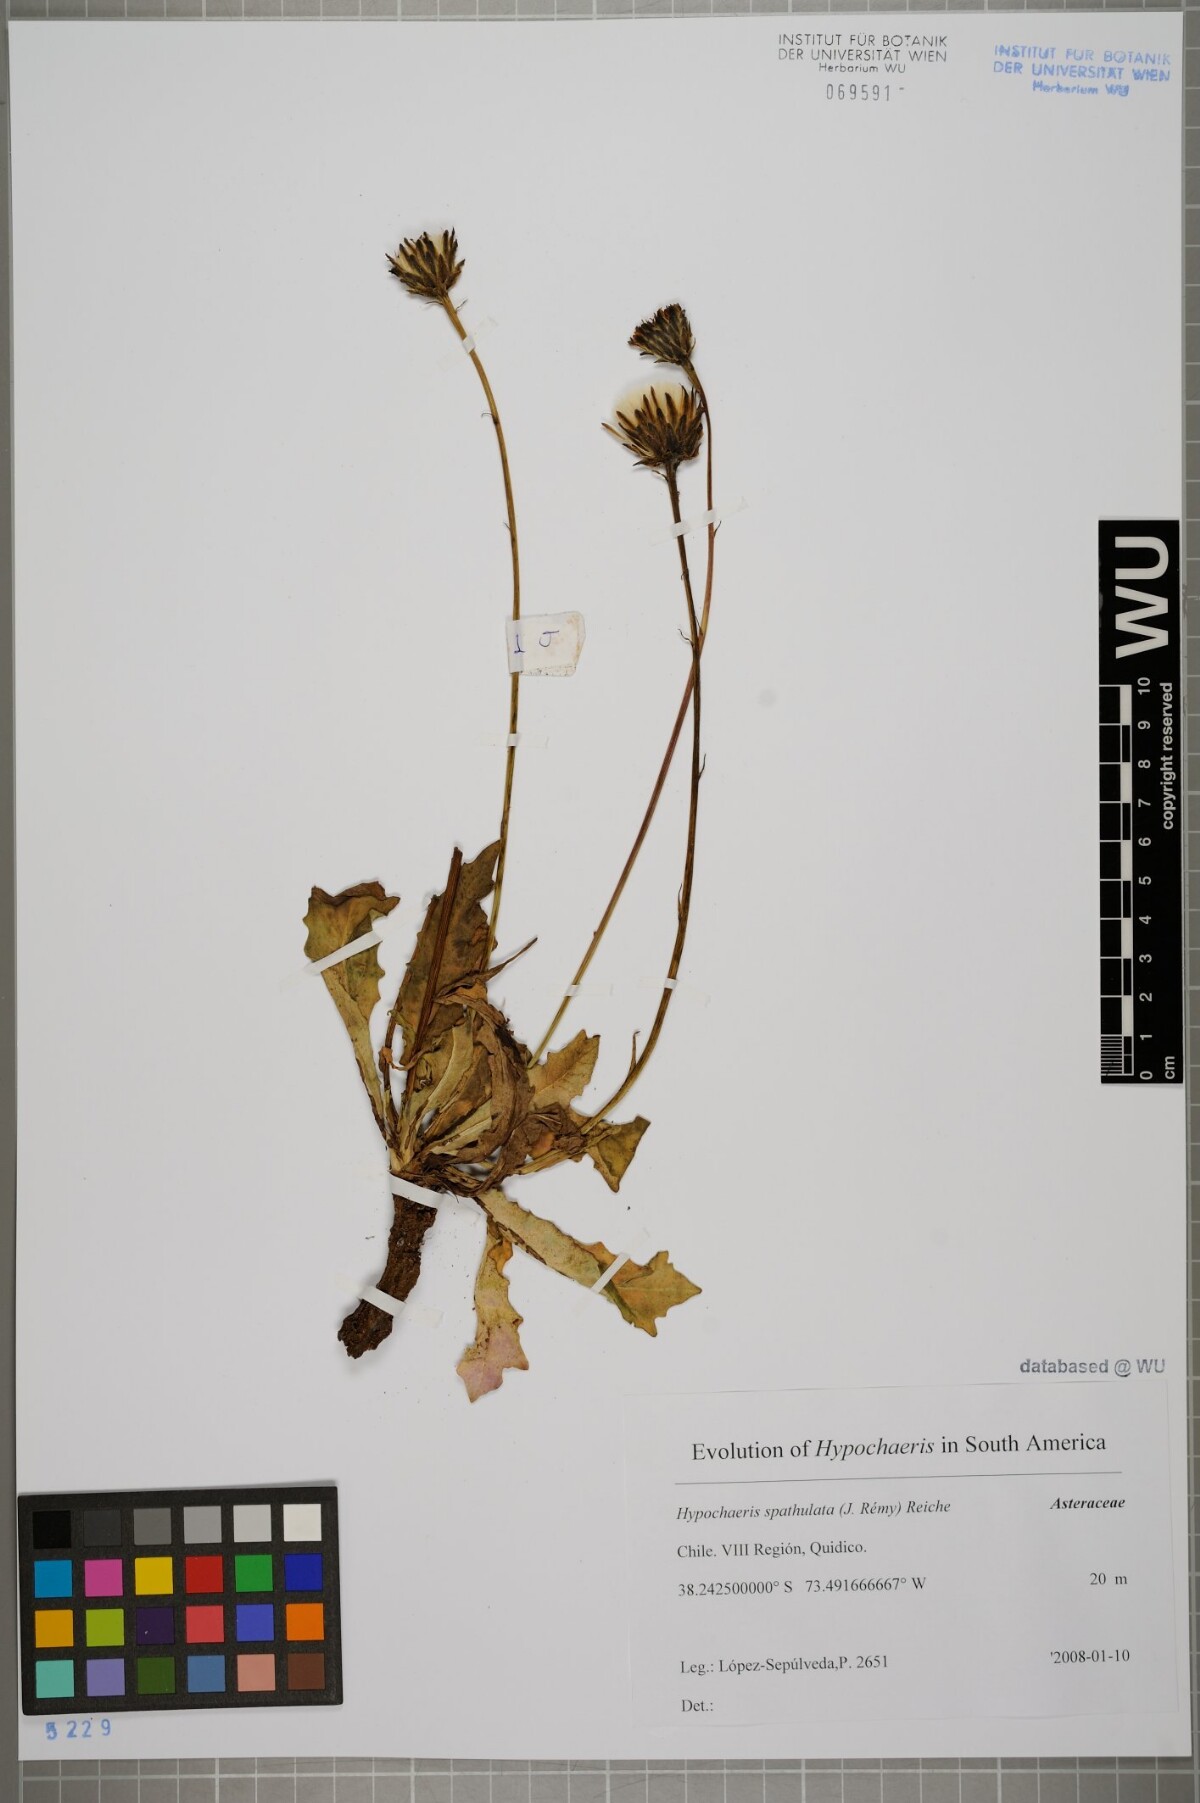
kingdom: Plantae
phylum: Tracheophyta
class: Magnoliopsida
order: Asterales
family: Asteraceae
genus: Hypochaeris
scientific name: Hypochaeris spathulata
